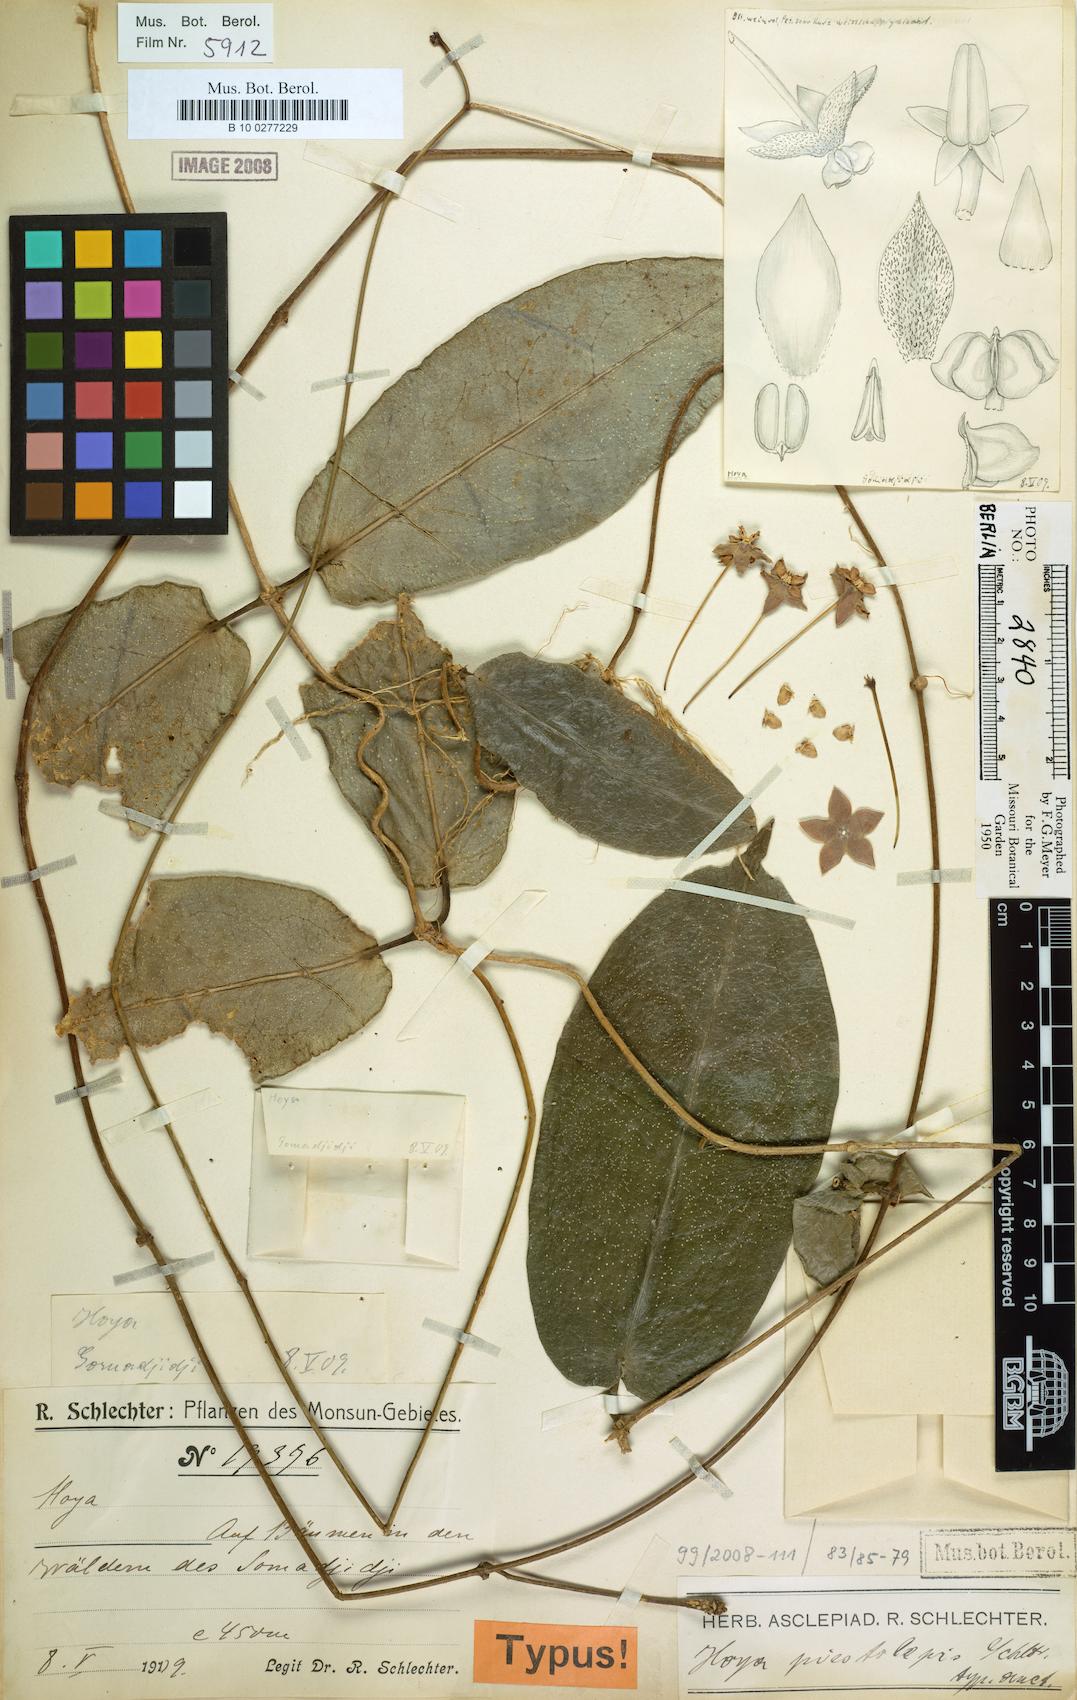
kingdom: Plantae
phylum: Tracheophyta
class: Magnoliopsida
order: Gentianales
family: Apocynaceae
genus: Hoya
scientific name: Hoya piestolepis
